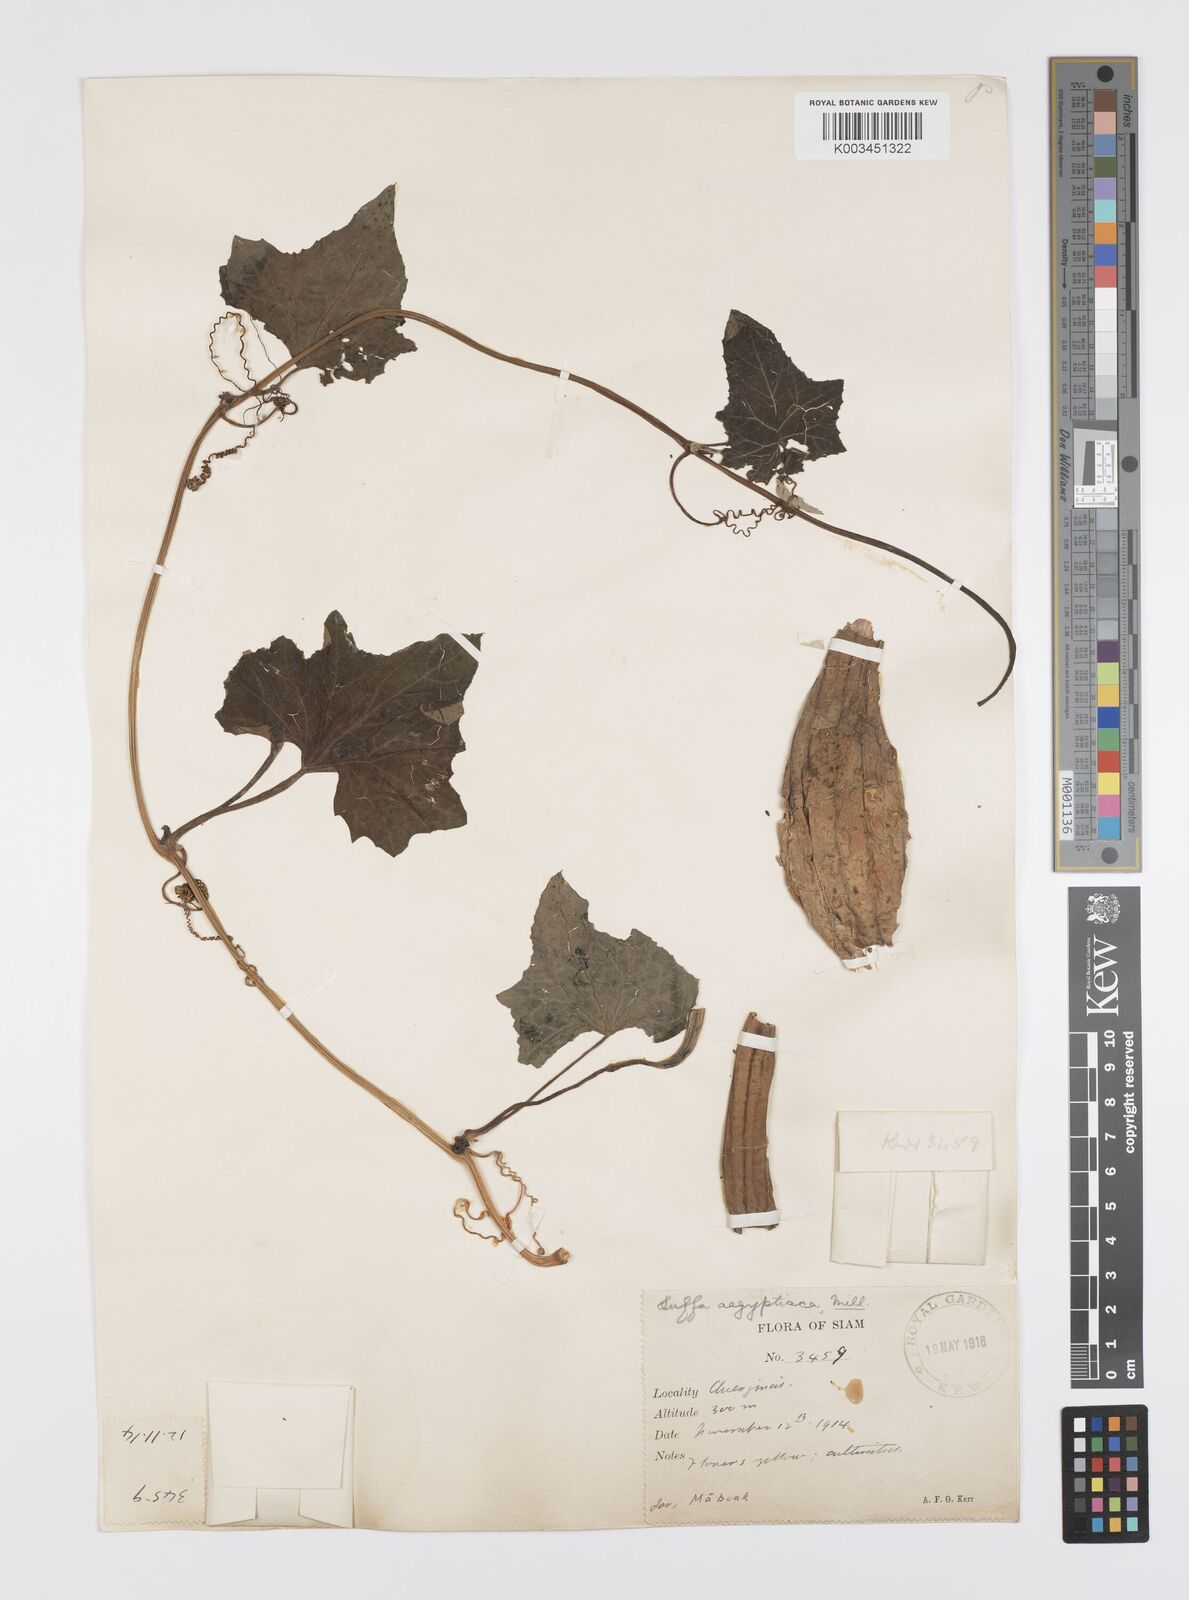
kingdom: Plantae
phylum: Tracheophyta
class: Magnoliopsida
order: Cucurbitales
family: Cucurbitaceae
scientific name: Cucurbitaceae
